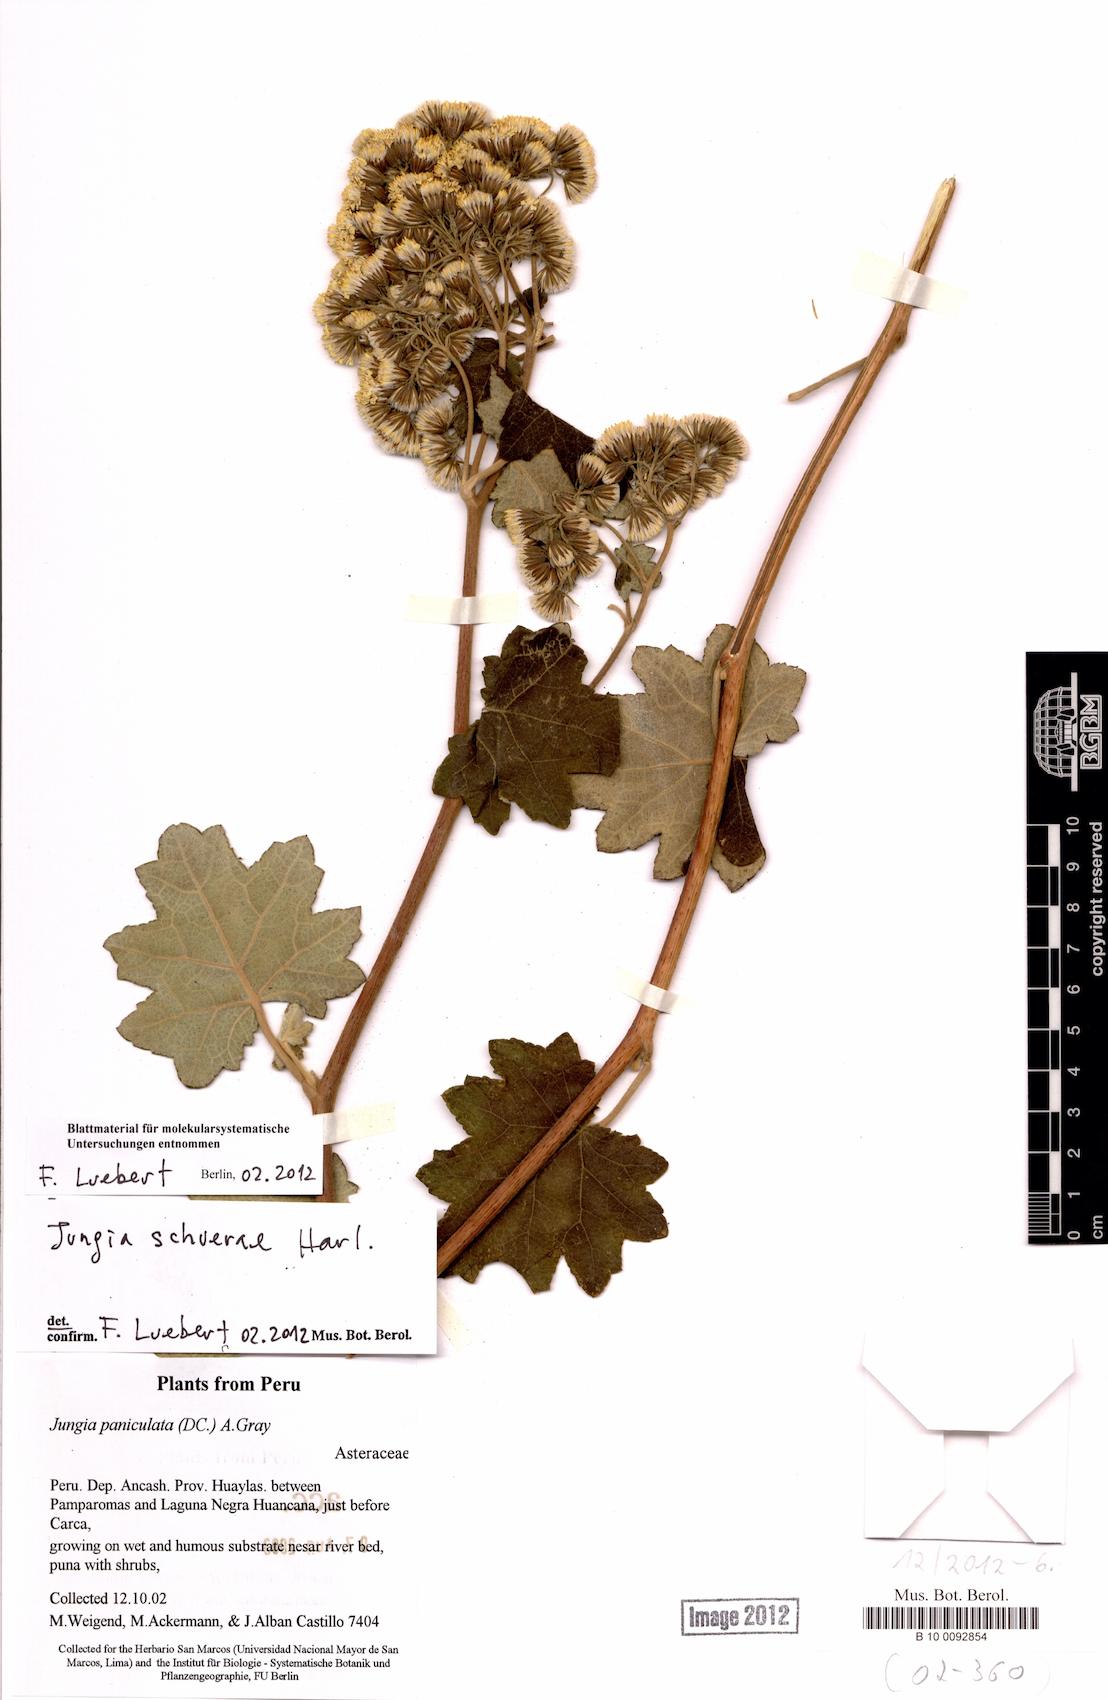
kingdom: Plantae
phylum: Tracheophyta
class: Magnoliopsida
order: Asterales
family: Asteraceae
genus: Jungia
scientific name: Jungia schuerae
